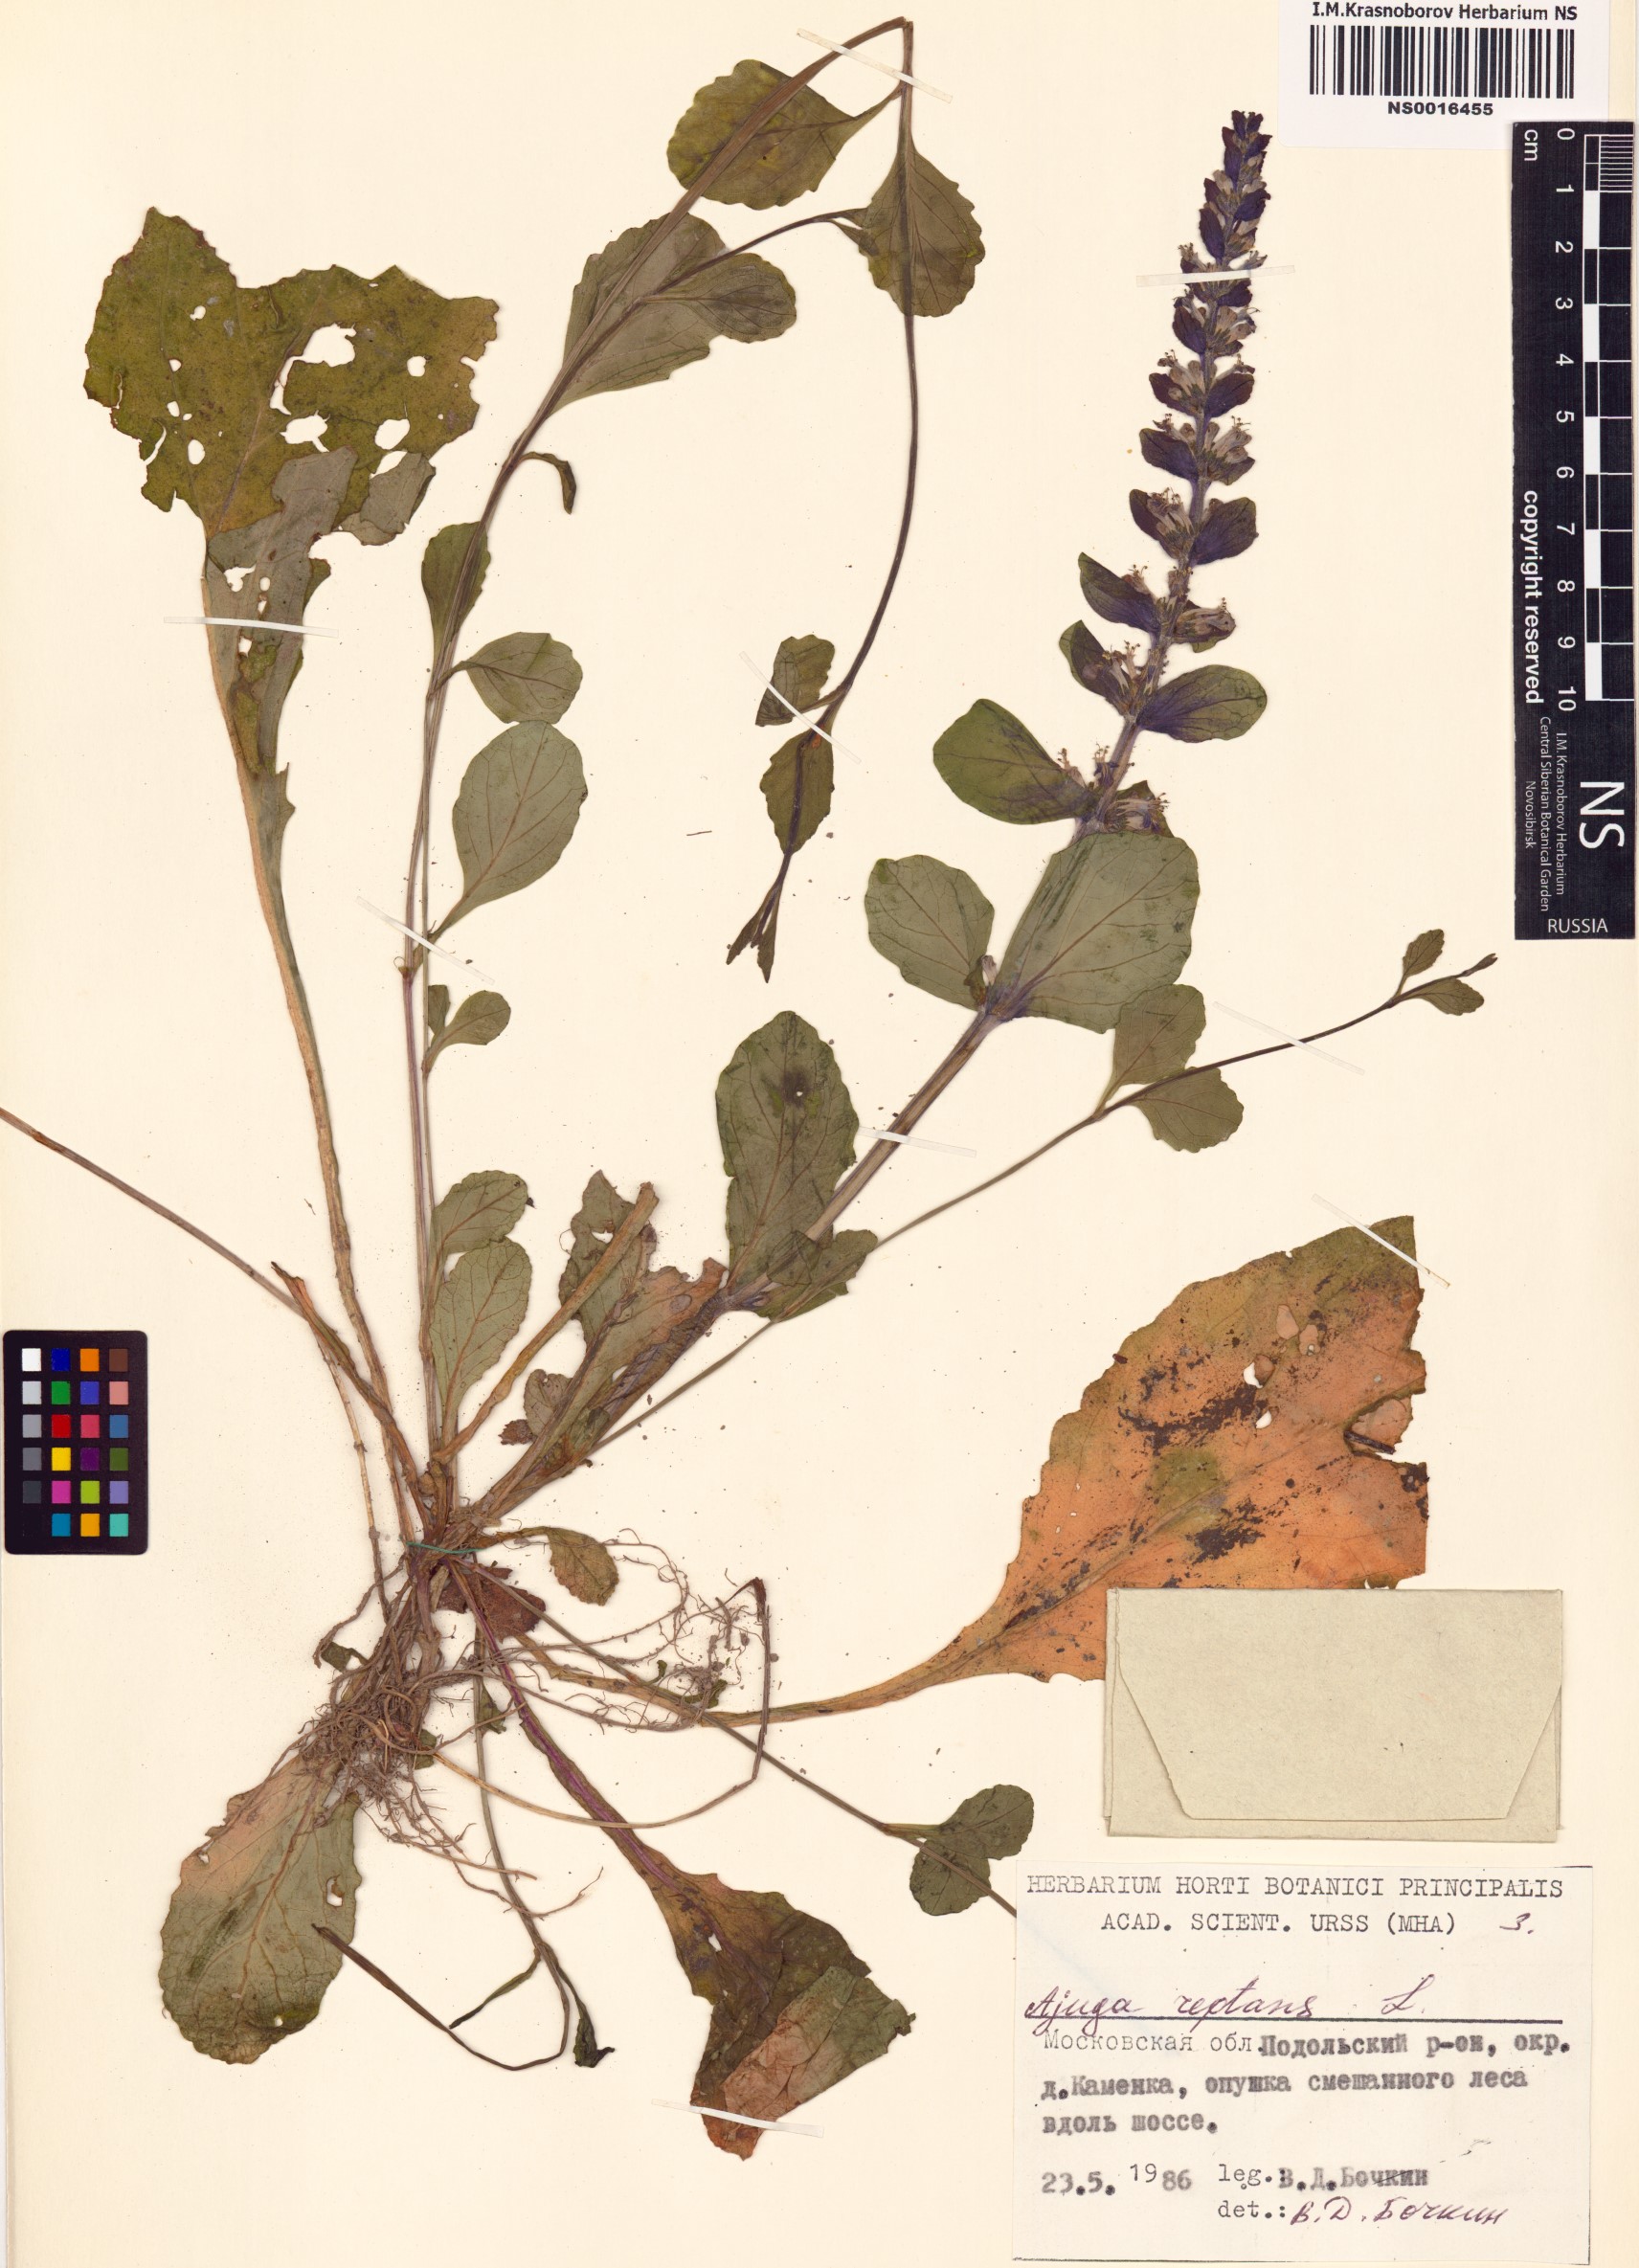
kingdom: Plantae
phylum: Tracheophyta
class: Magnoliopsida
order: Lamiales
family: Lamiaceae
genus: Ajuga
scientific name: Ajuga reptans
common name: Bugle
